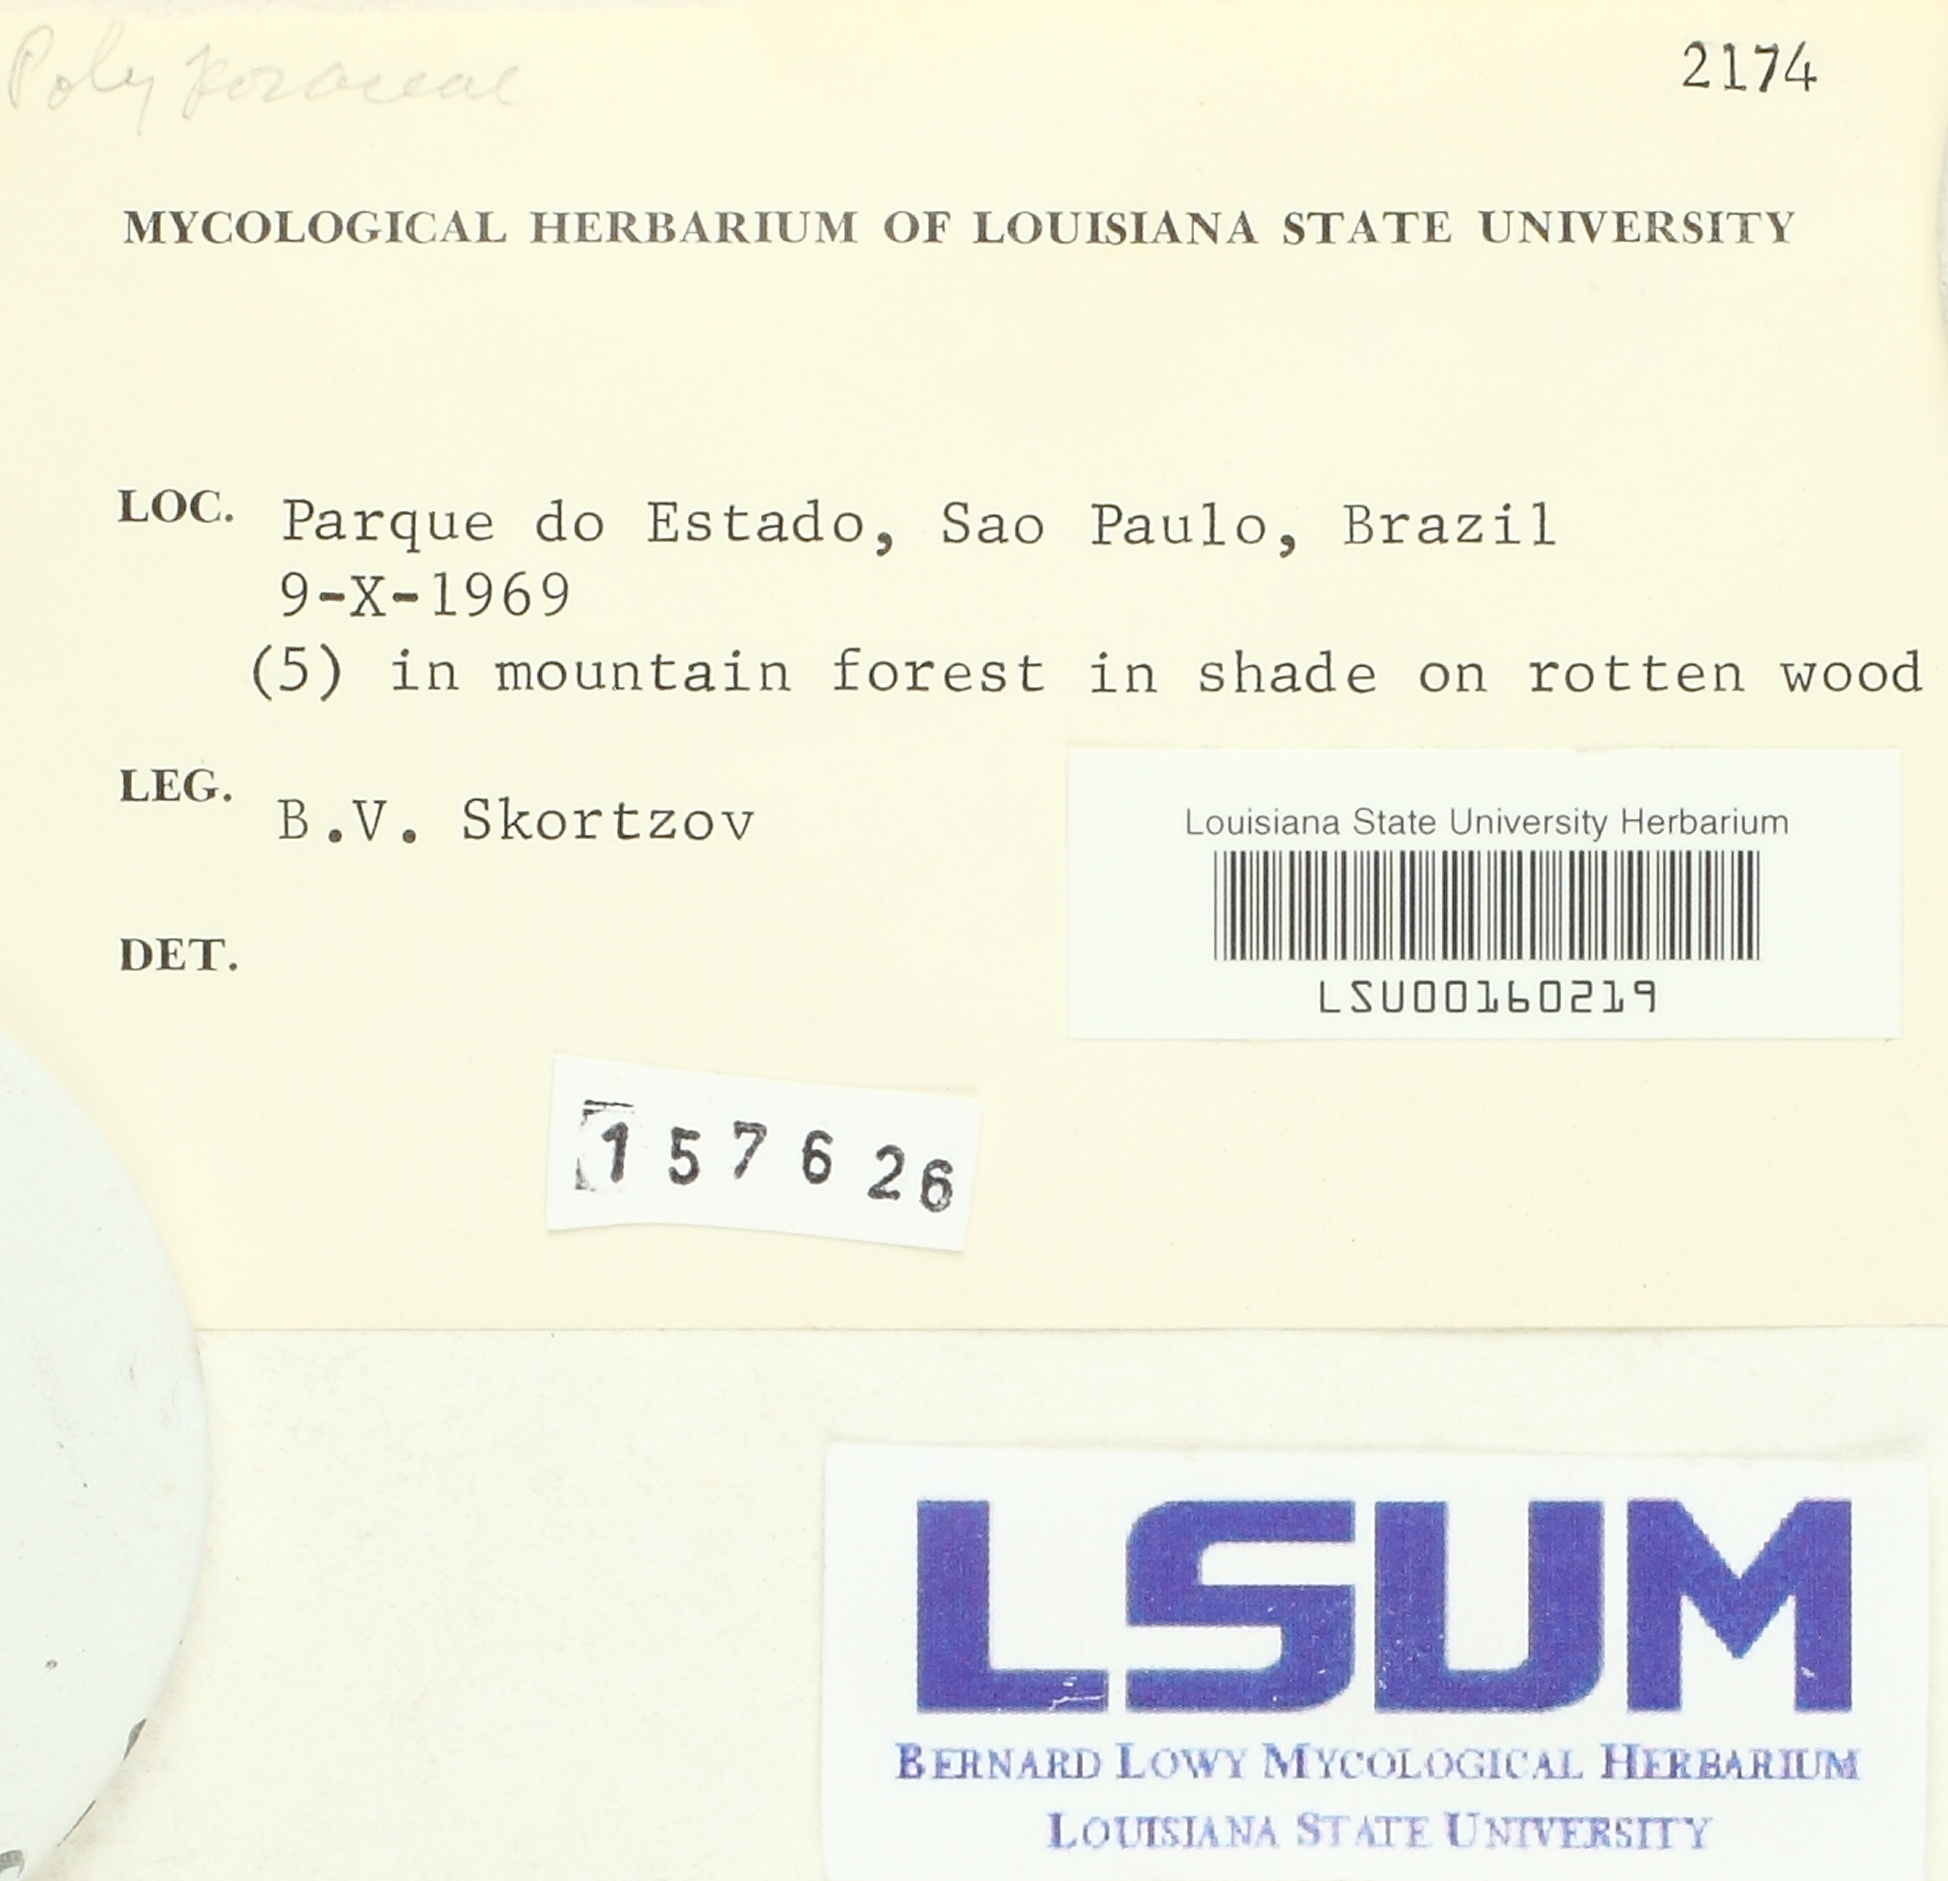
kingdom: Fungi
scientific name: Fungi
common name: Fungi
